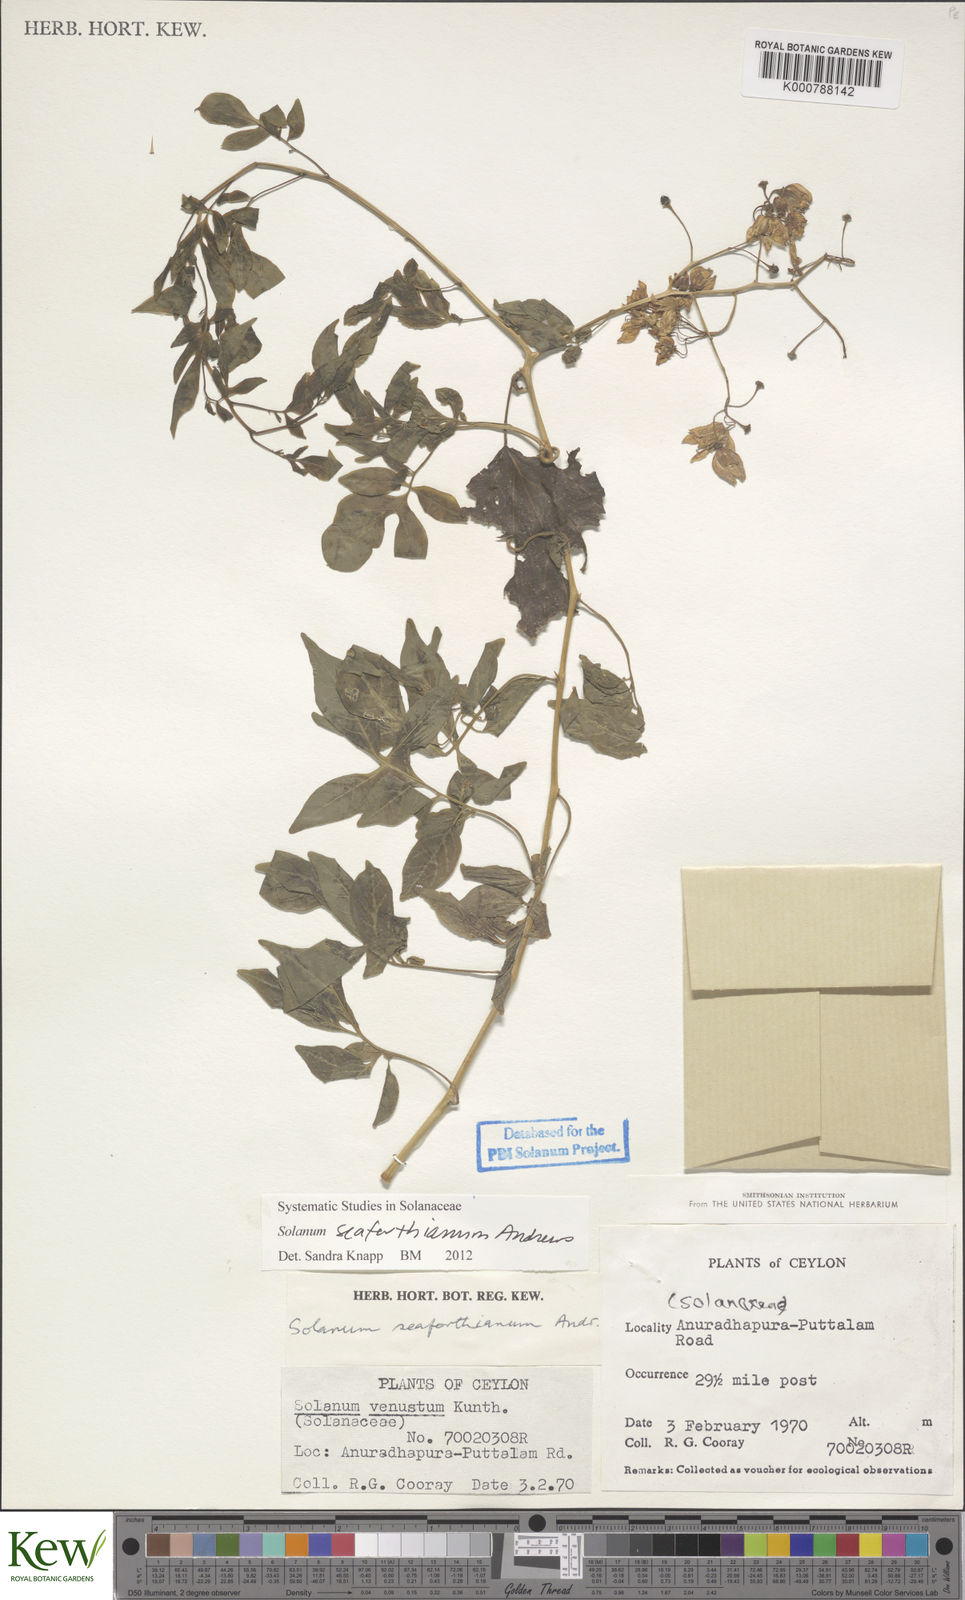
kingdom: Plantae
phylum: Tracheophyta
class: Magnoliopsida
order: Solanales
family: Solanaceae
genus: Solanum
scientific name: Solanum seaforthianum
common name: Brazilian nightshade
